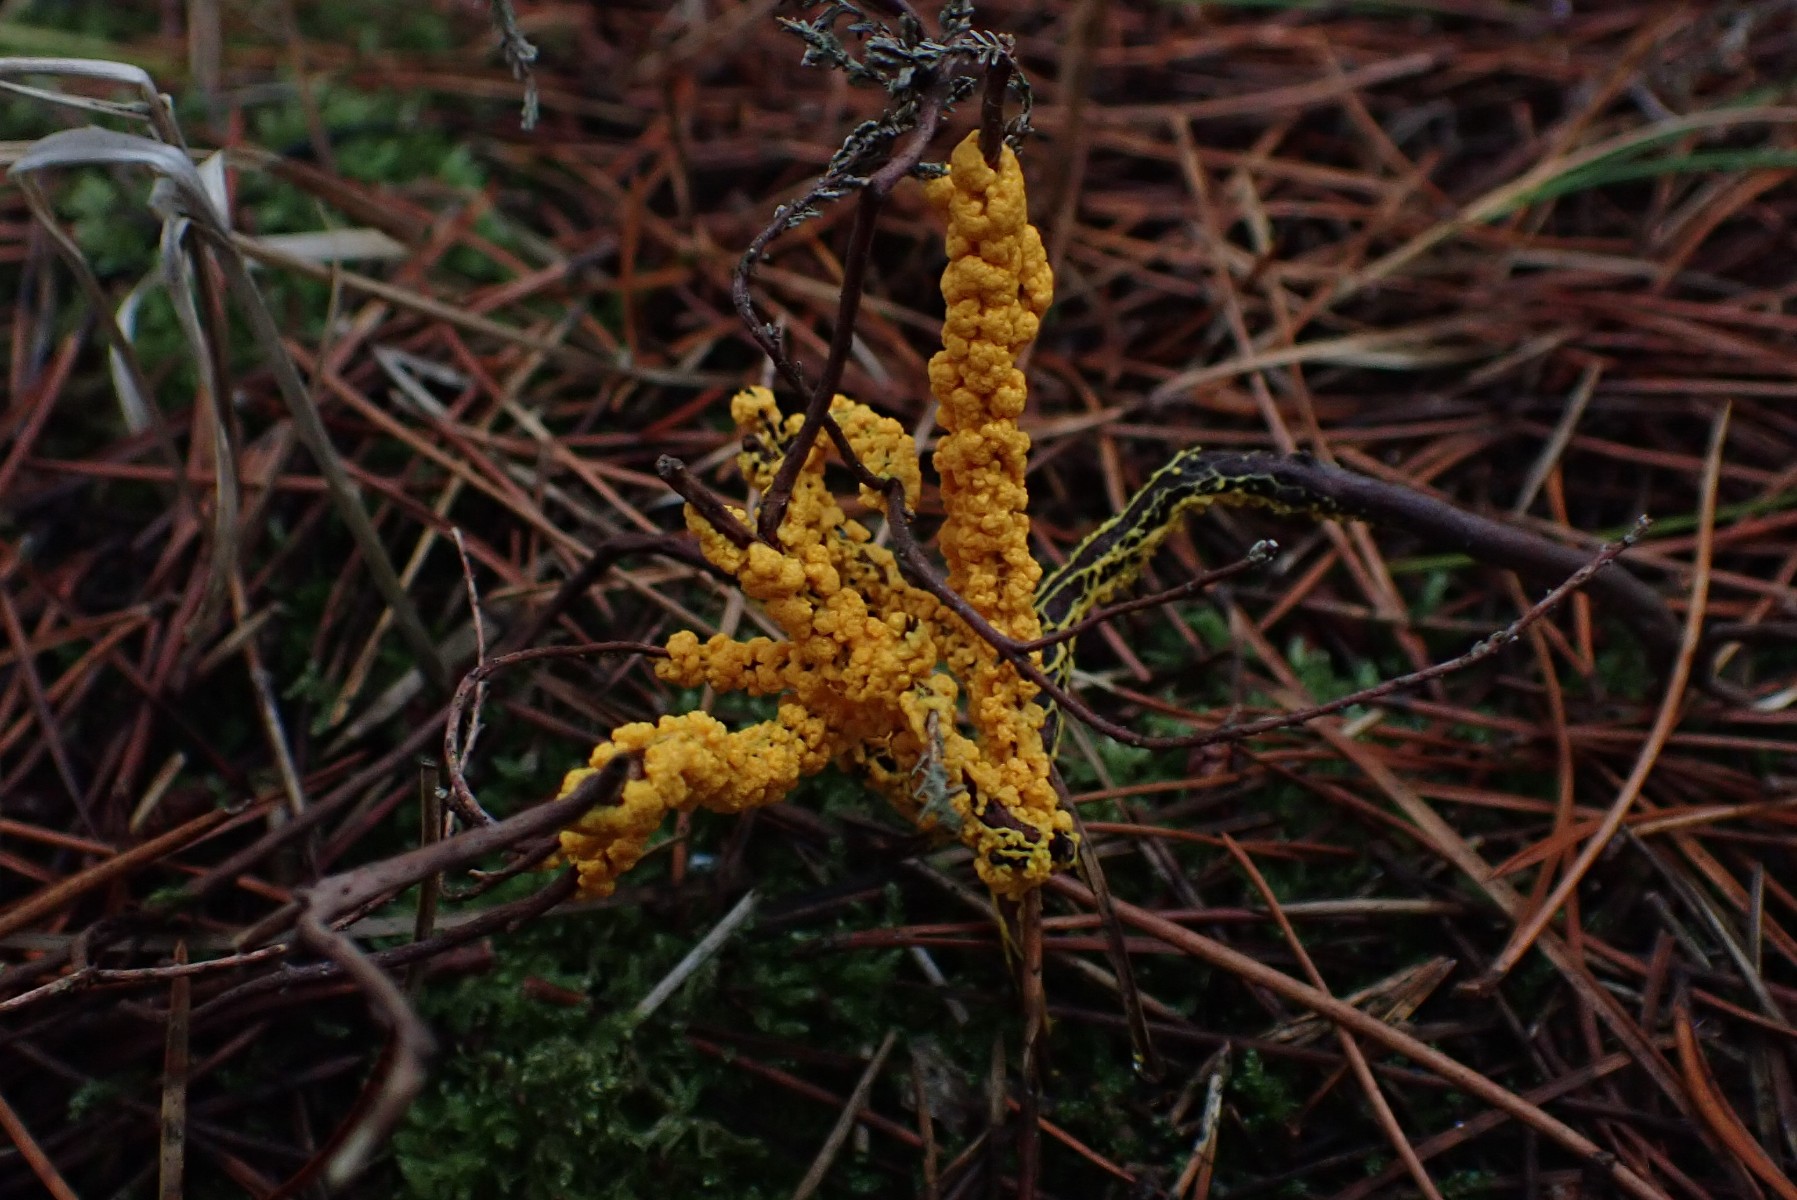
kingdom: Protozoa
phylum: Mycetozoa
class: Myxomycetes
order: Physarales
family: Physaraceae
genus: Leocarpus
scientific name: Leocarpus fragilis
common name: poleret glatfrø
